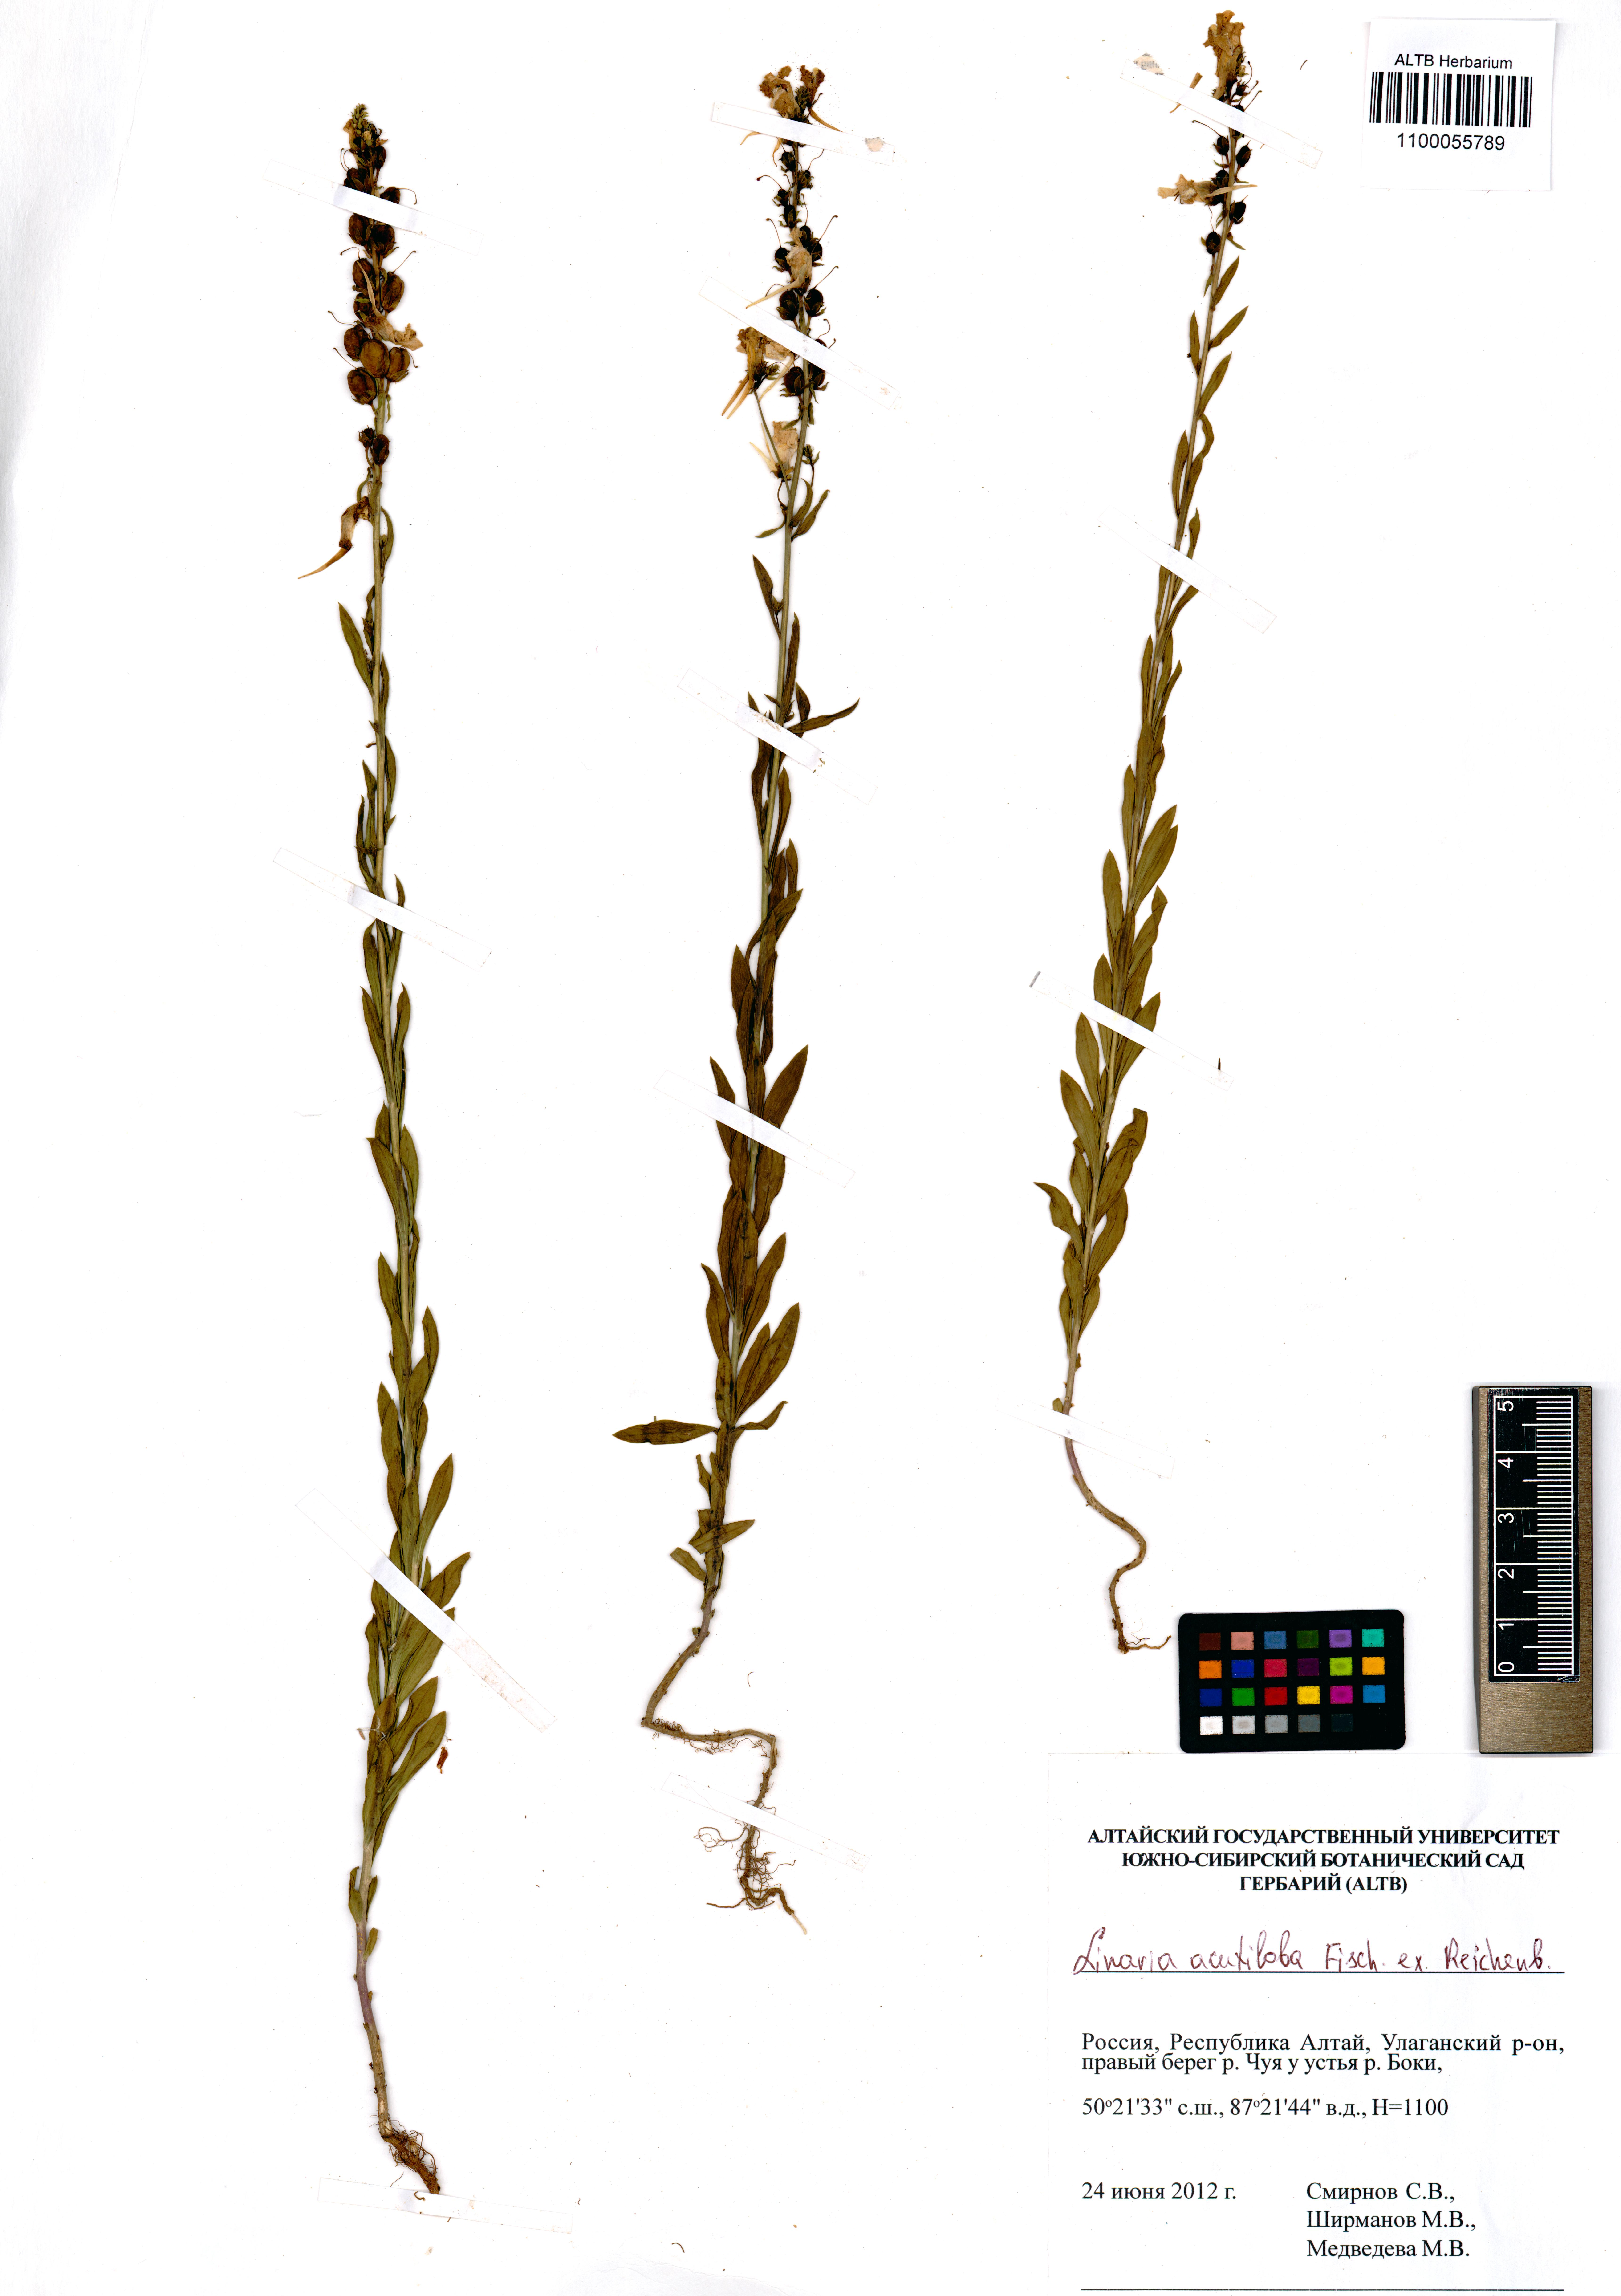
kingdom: Plantae
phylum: Tracheophyta
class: Magnoliopsida
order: Lamiales
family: Plantaginaceae
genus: Linaria
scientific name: Linaria acutiloba
